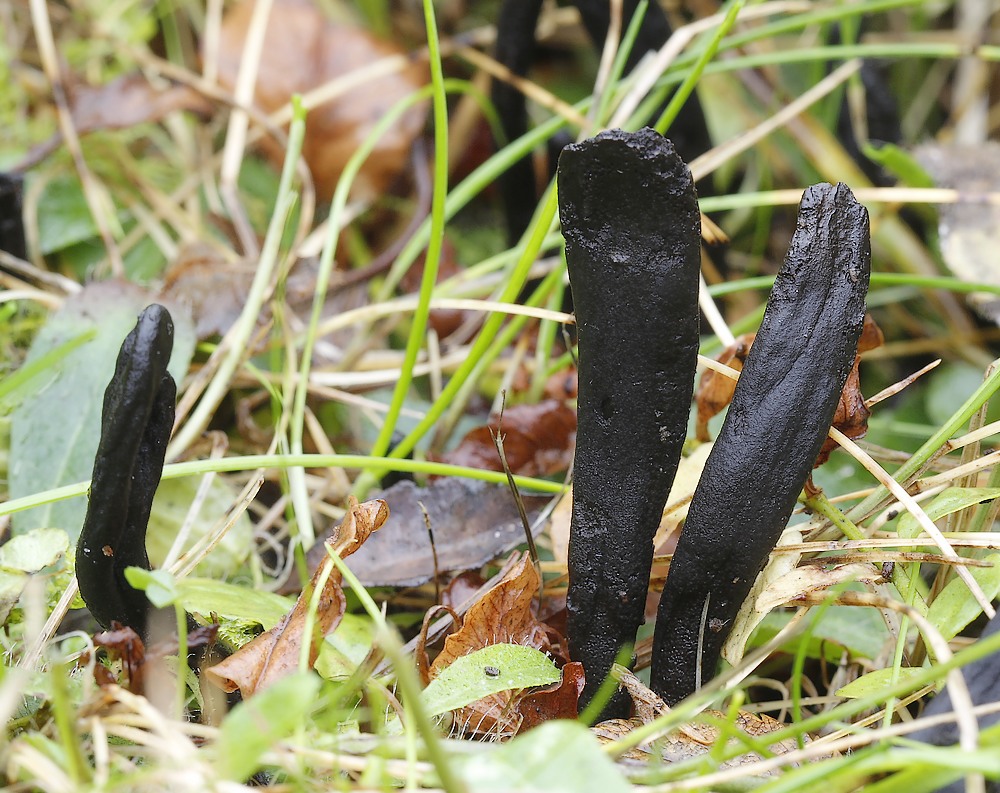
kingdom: Fungi
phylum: Ascomycota
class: Geoglossomycetes
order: Geoglossales
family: Geoglossaceae
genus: Geoglossum
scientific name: Geoglossum umbratile
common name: slank jordtunge
